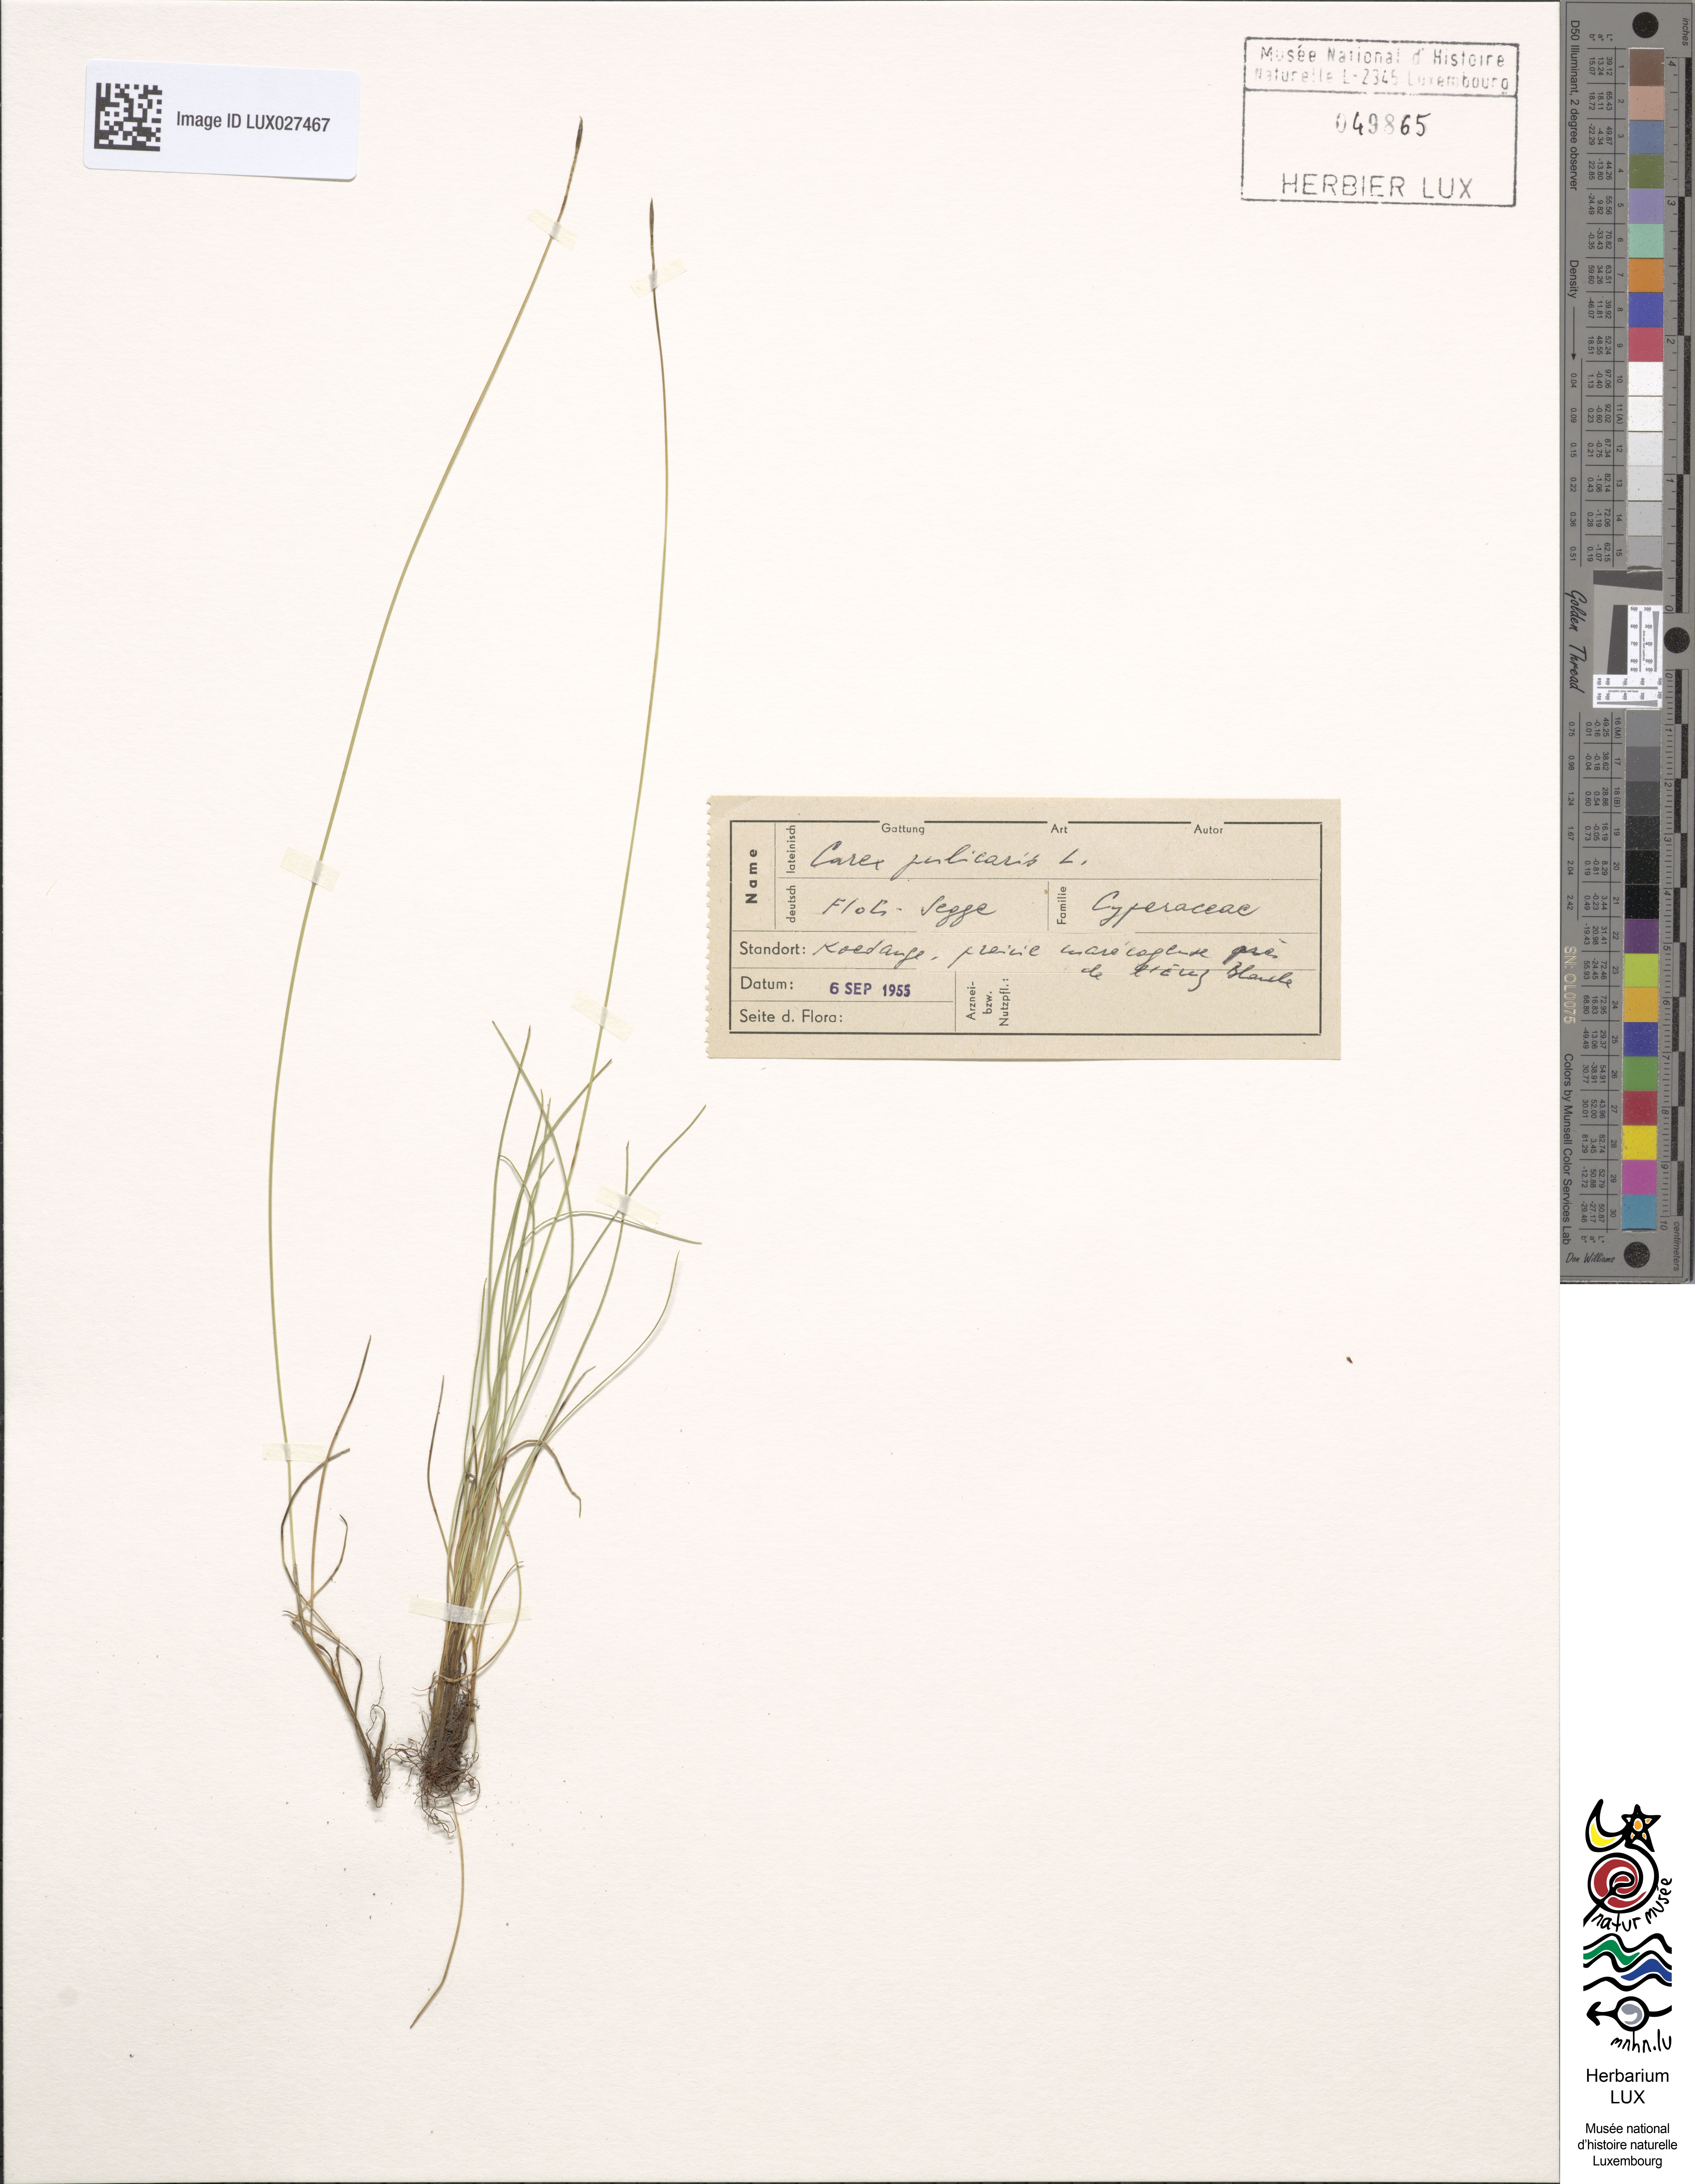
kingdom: Plantae
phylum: Tracheophyta
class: Liliopsida
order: Poales
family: Cyperaceae
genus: Carex
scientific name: Carex pulicaris
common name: Flea sedge
